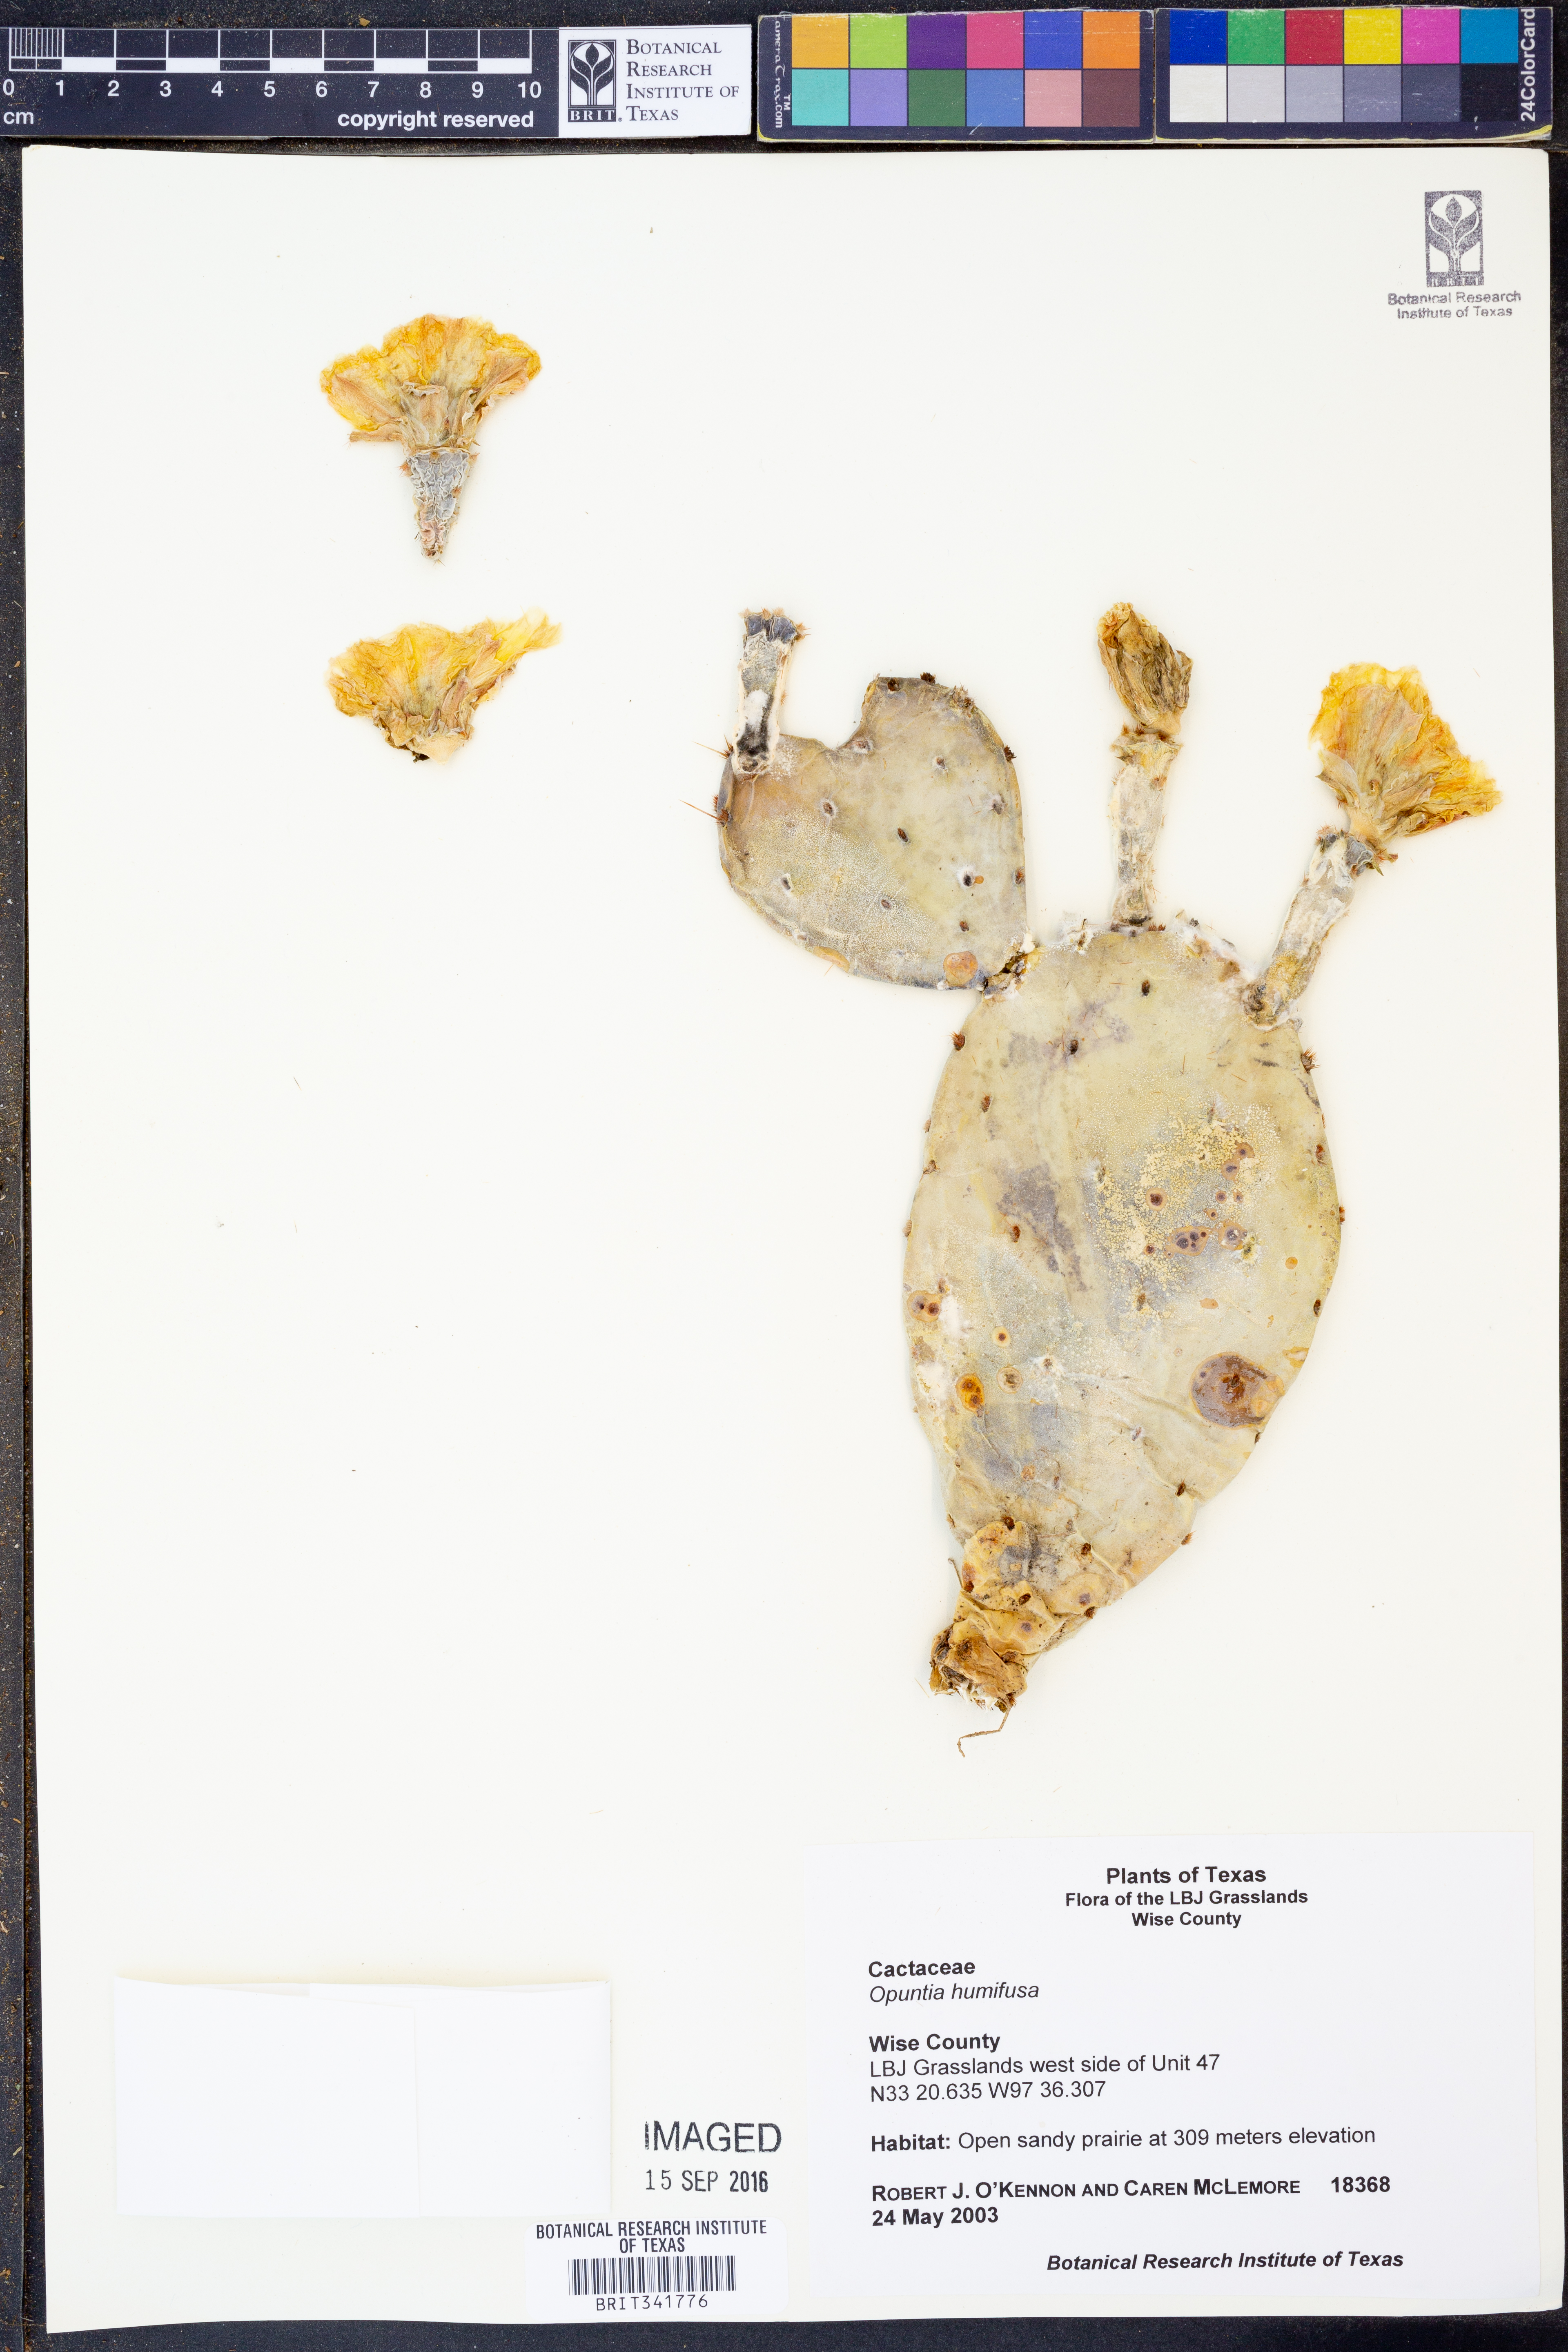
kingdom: Plantae
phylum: Tracheophyta
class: Magnoliopsida
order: Caryophyllales
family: Cactaceae
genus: Opuntia
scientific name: Opuntia humifusa
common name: Eastern prickly-pear
